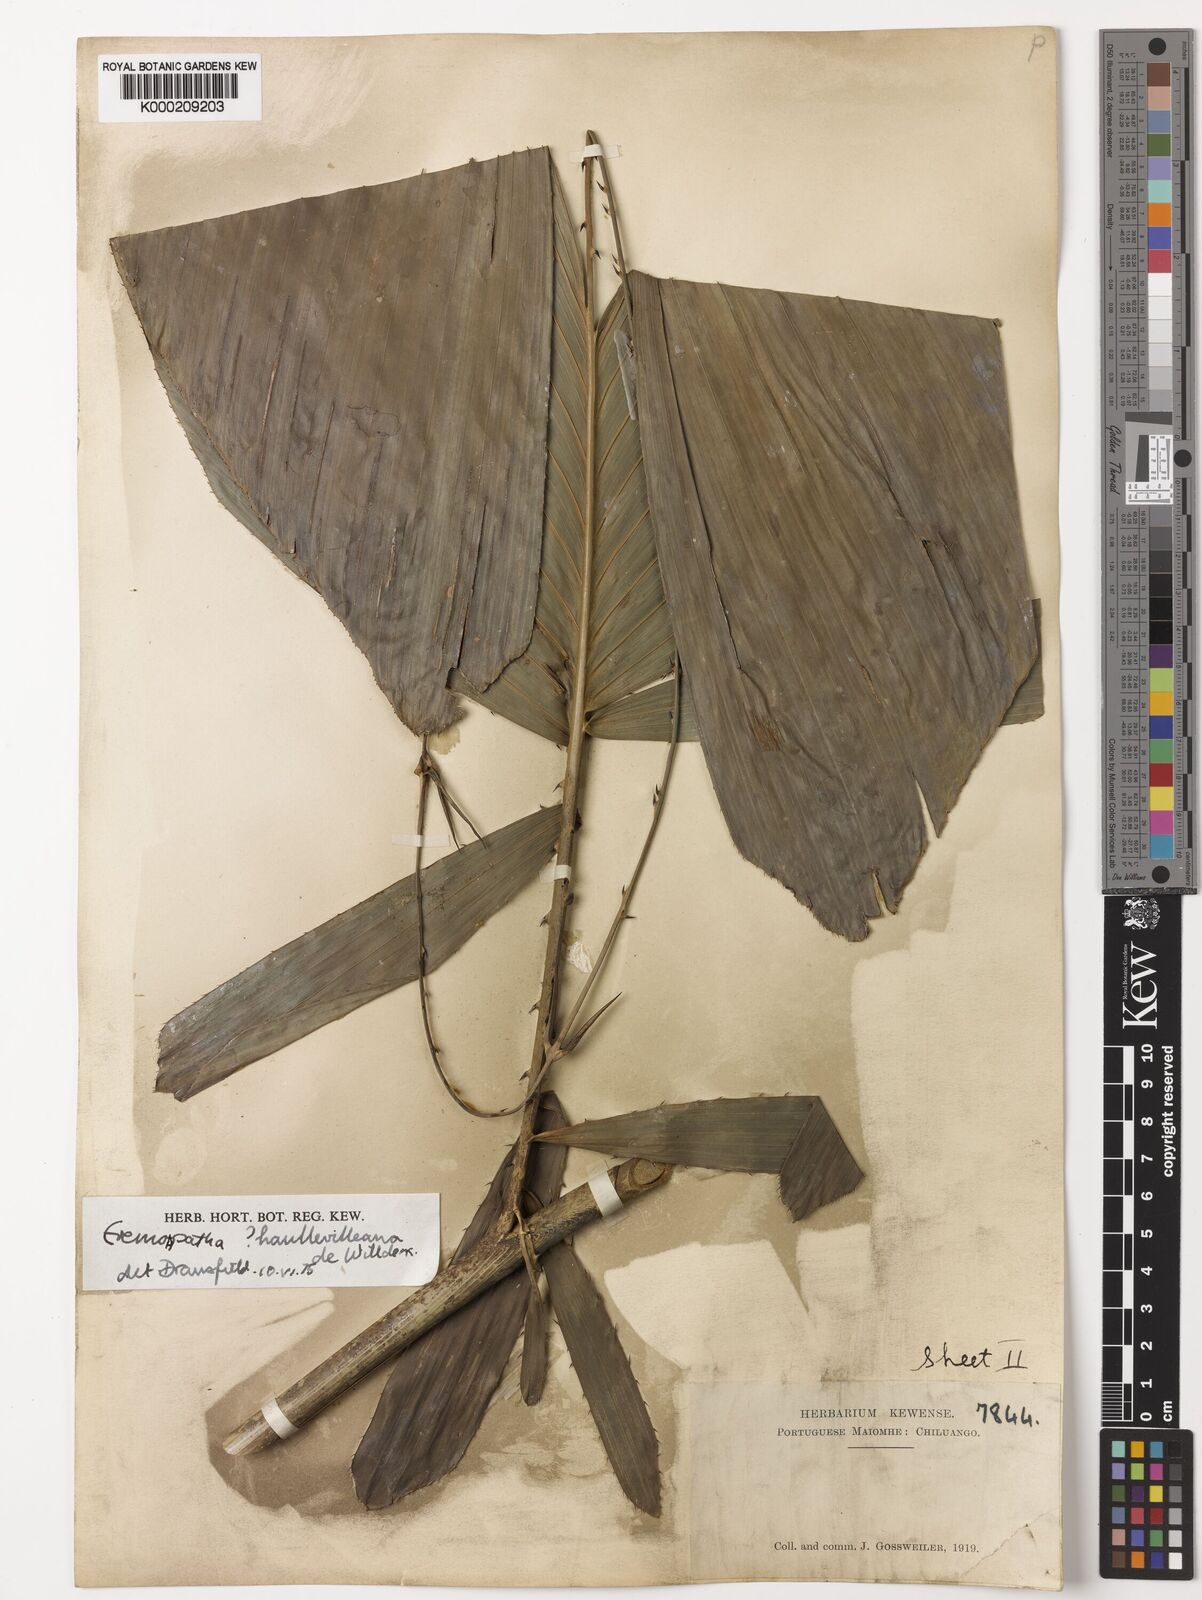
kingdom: Plantae
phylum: Tracheophyta
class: Liliopsida
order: Arecales
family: Arecaceae
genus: Eremospatha
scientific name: Eremospatha haullevilleana
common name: Rattan
